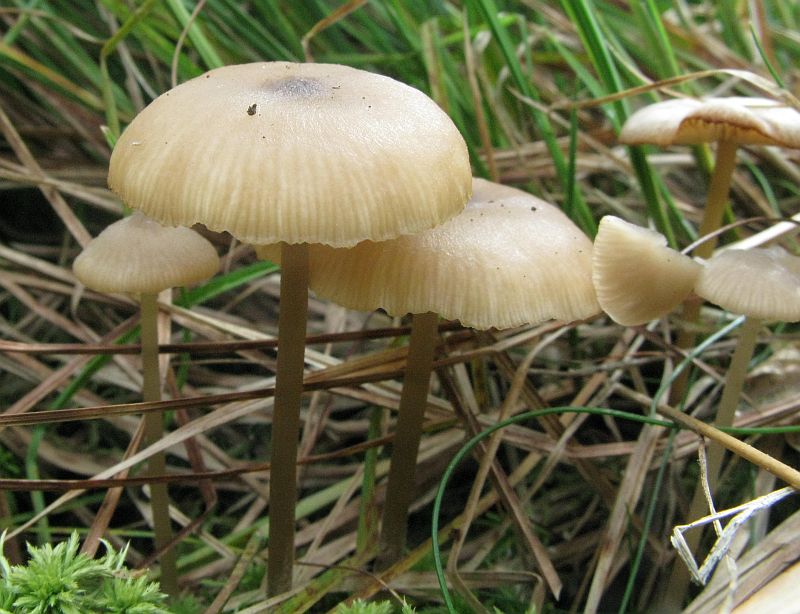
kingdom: Fungi
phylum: Basidiomycota
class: Agaricomycetes
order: Agaricales
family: Lyophyllaceae
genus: Sphagnurus
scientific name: Sphagnurus paluster
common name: tørvemos-gråblad
